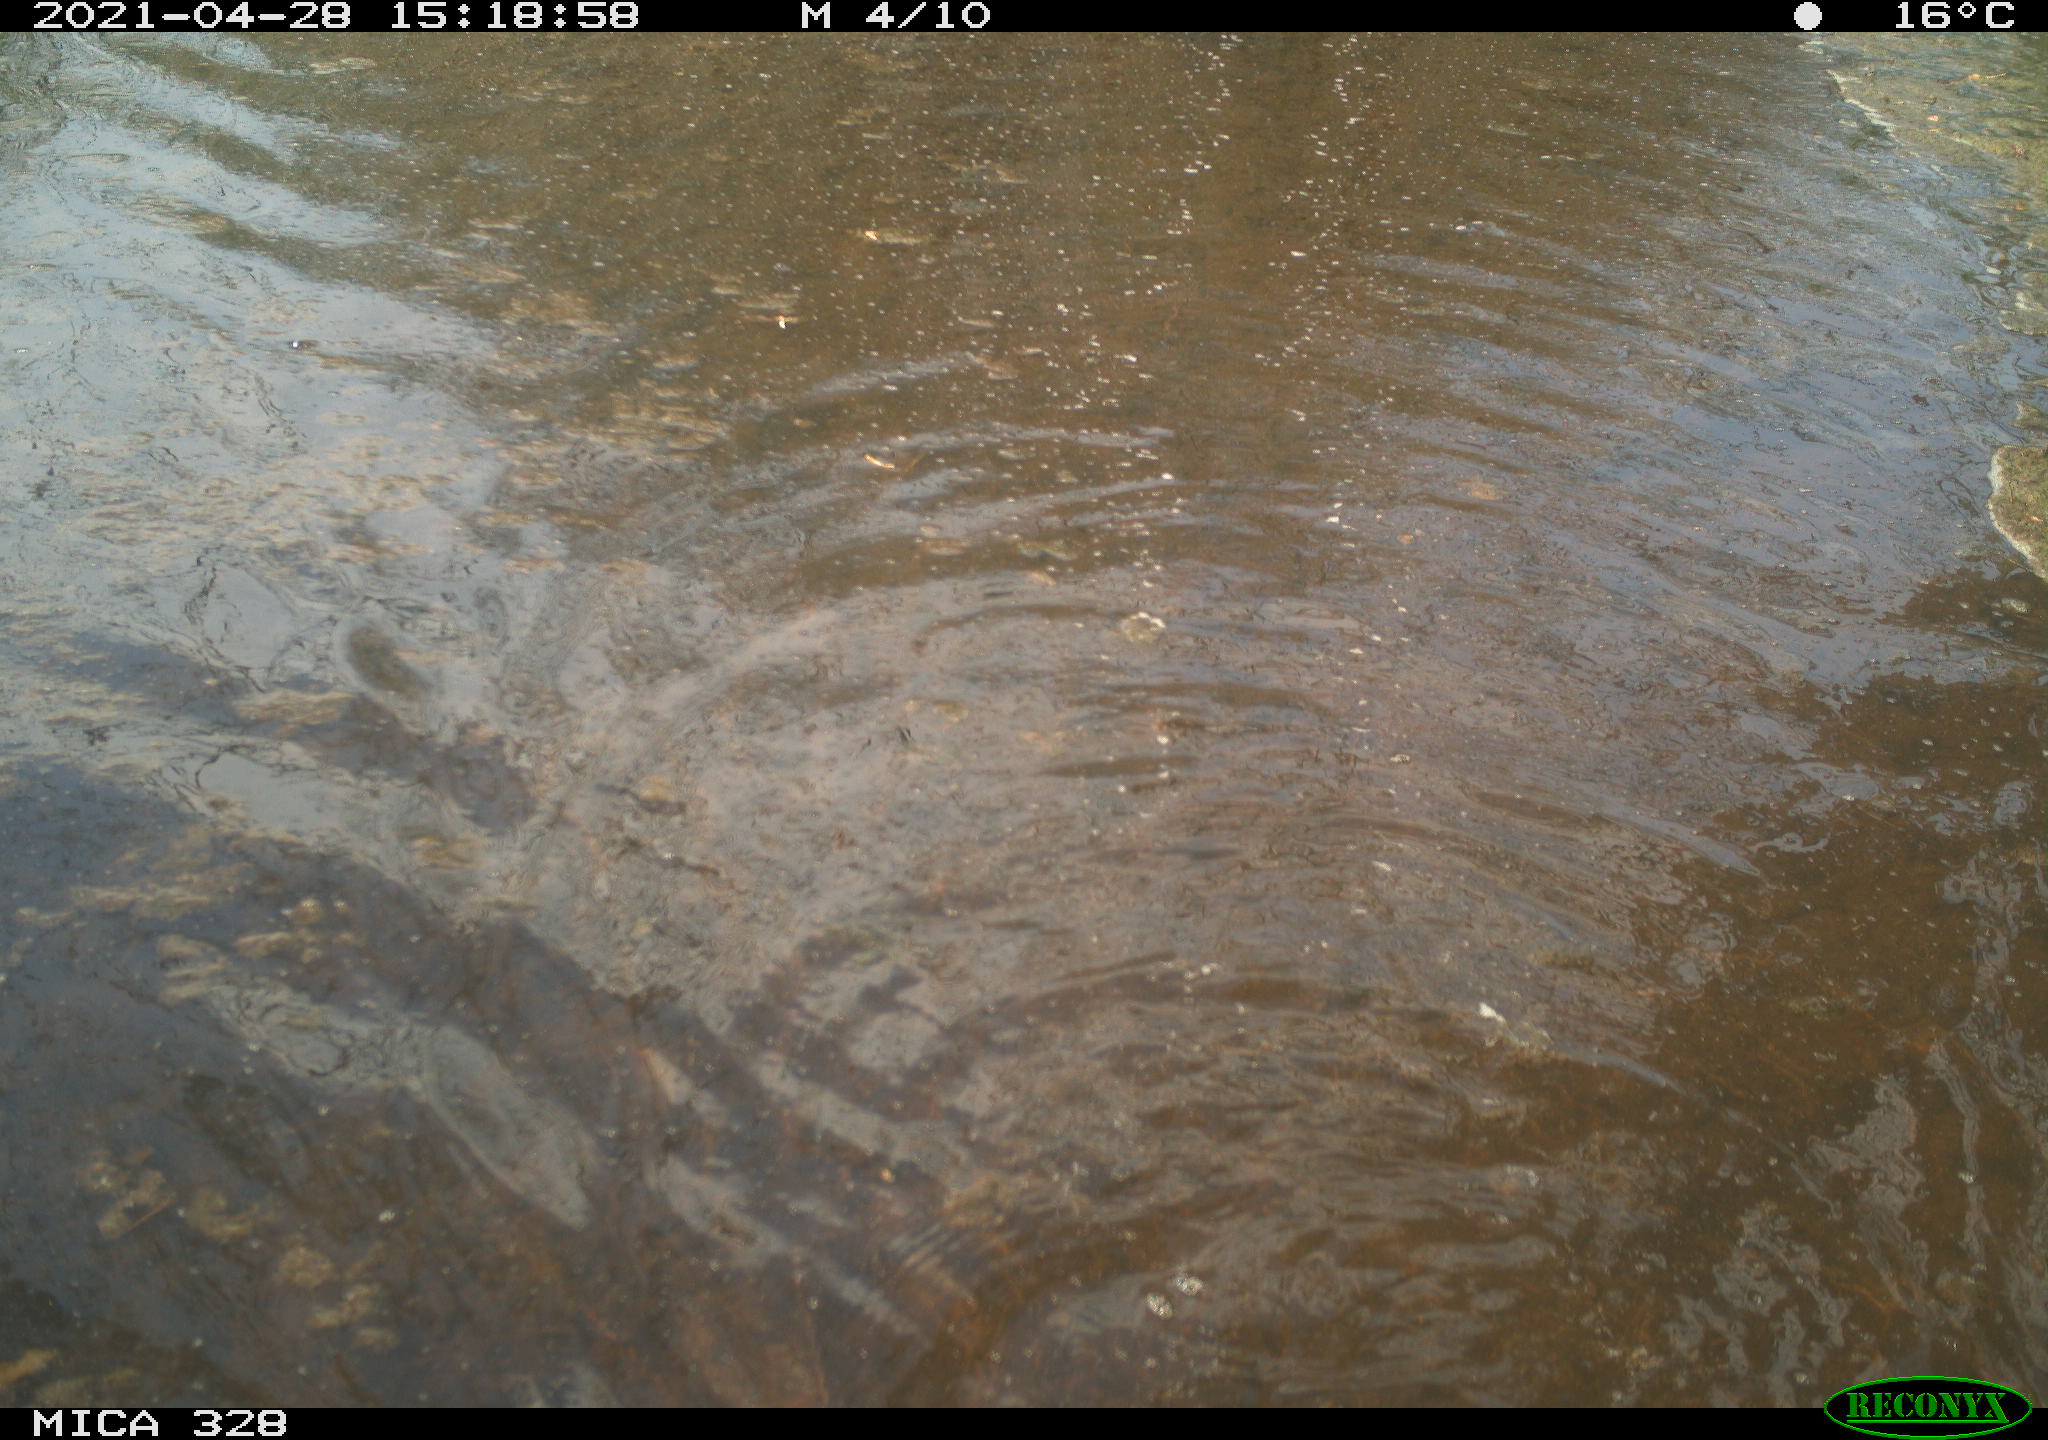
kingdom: Animalia
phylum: Chordata
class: Mammalia
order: Rodentia
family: Cricetidae
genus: Ondatra
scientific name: Ondatra zibethicus
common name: Muskrat
